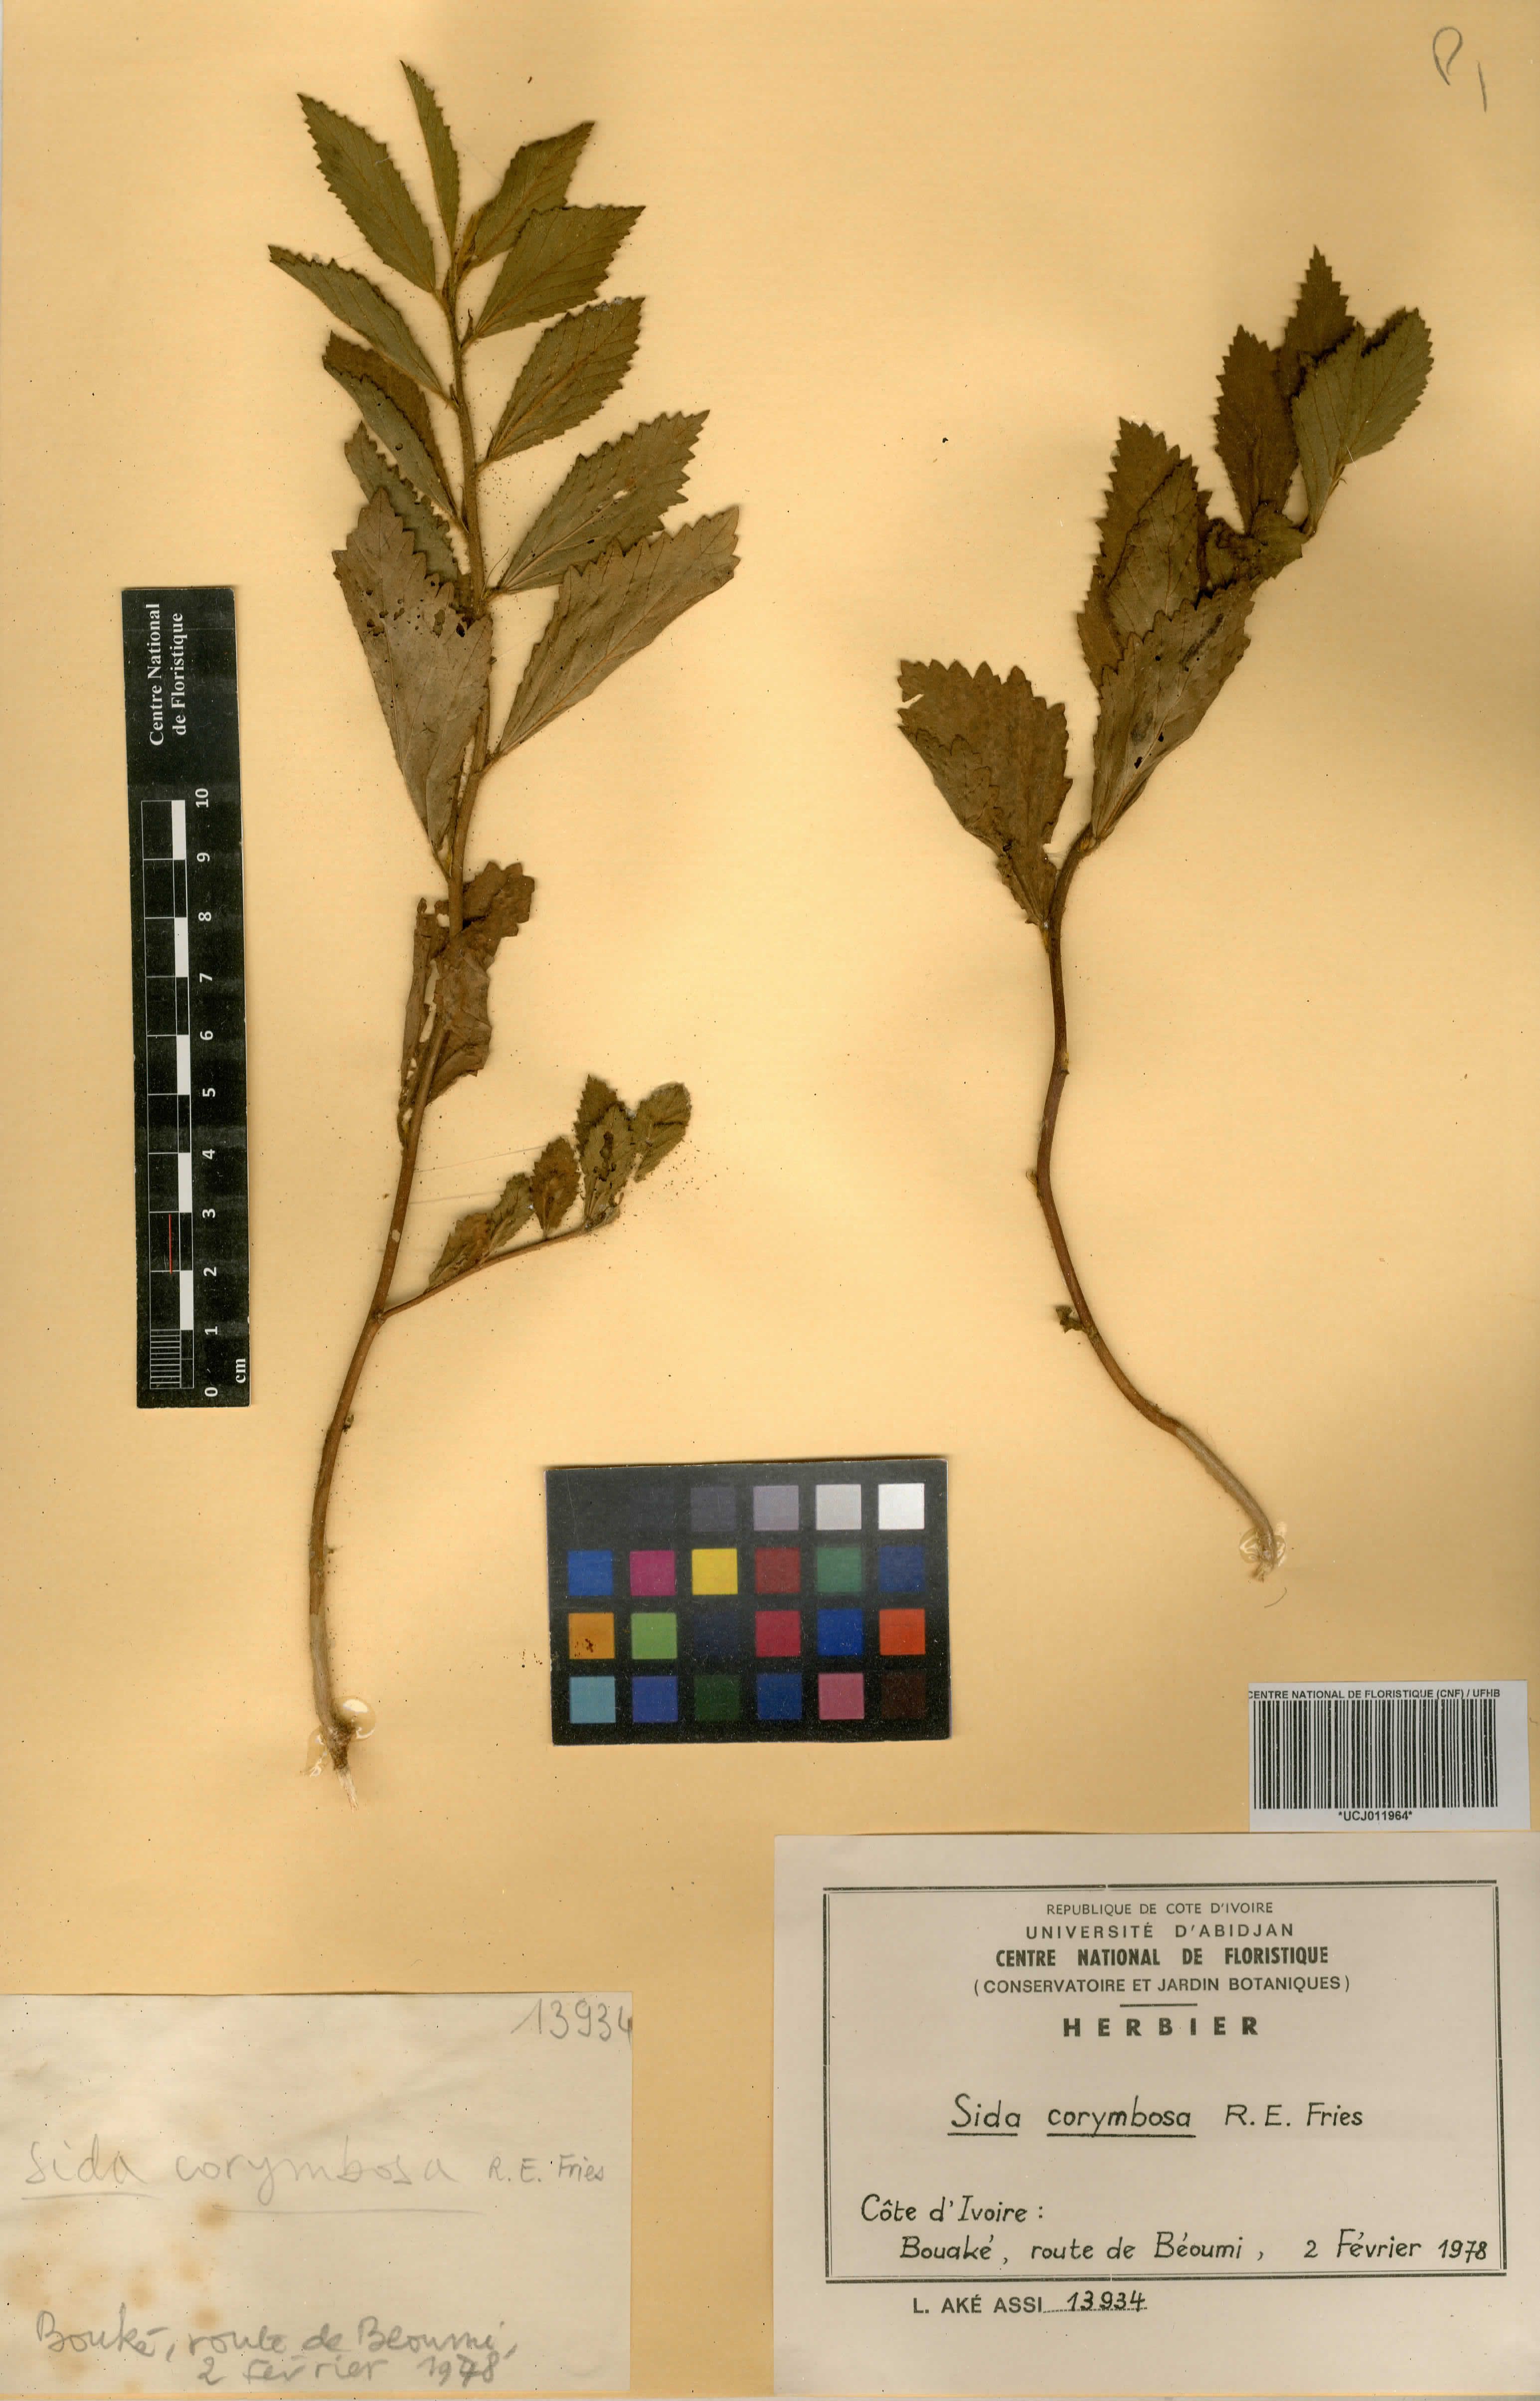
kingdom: Plantae
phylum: Tracheophyta
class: Magnoliopsida
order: Malvales
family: Malvaceae
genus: Sida
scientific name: Sida collina
